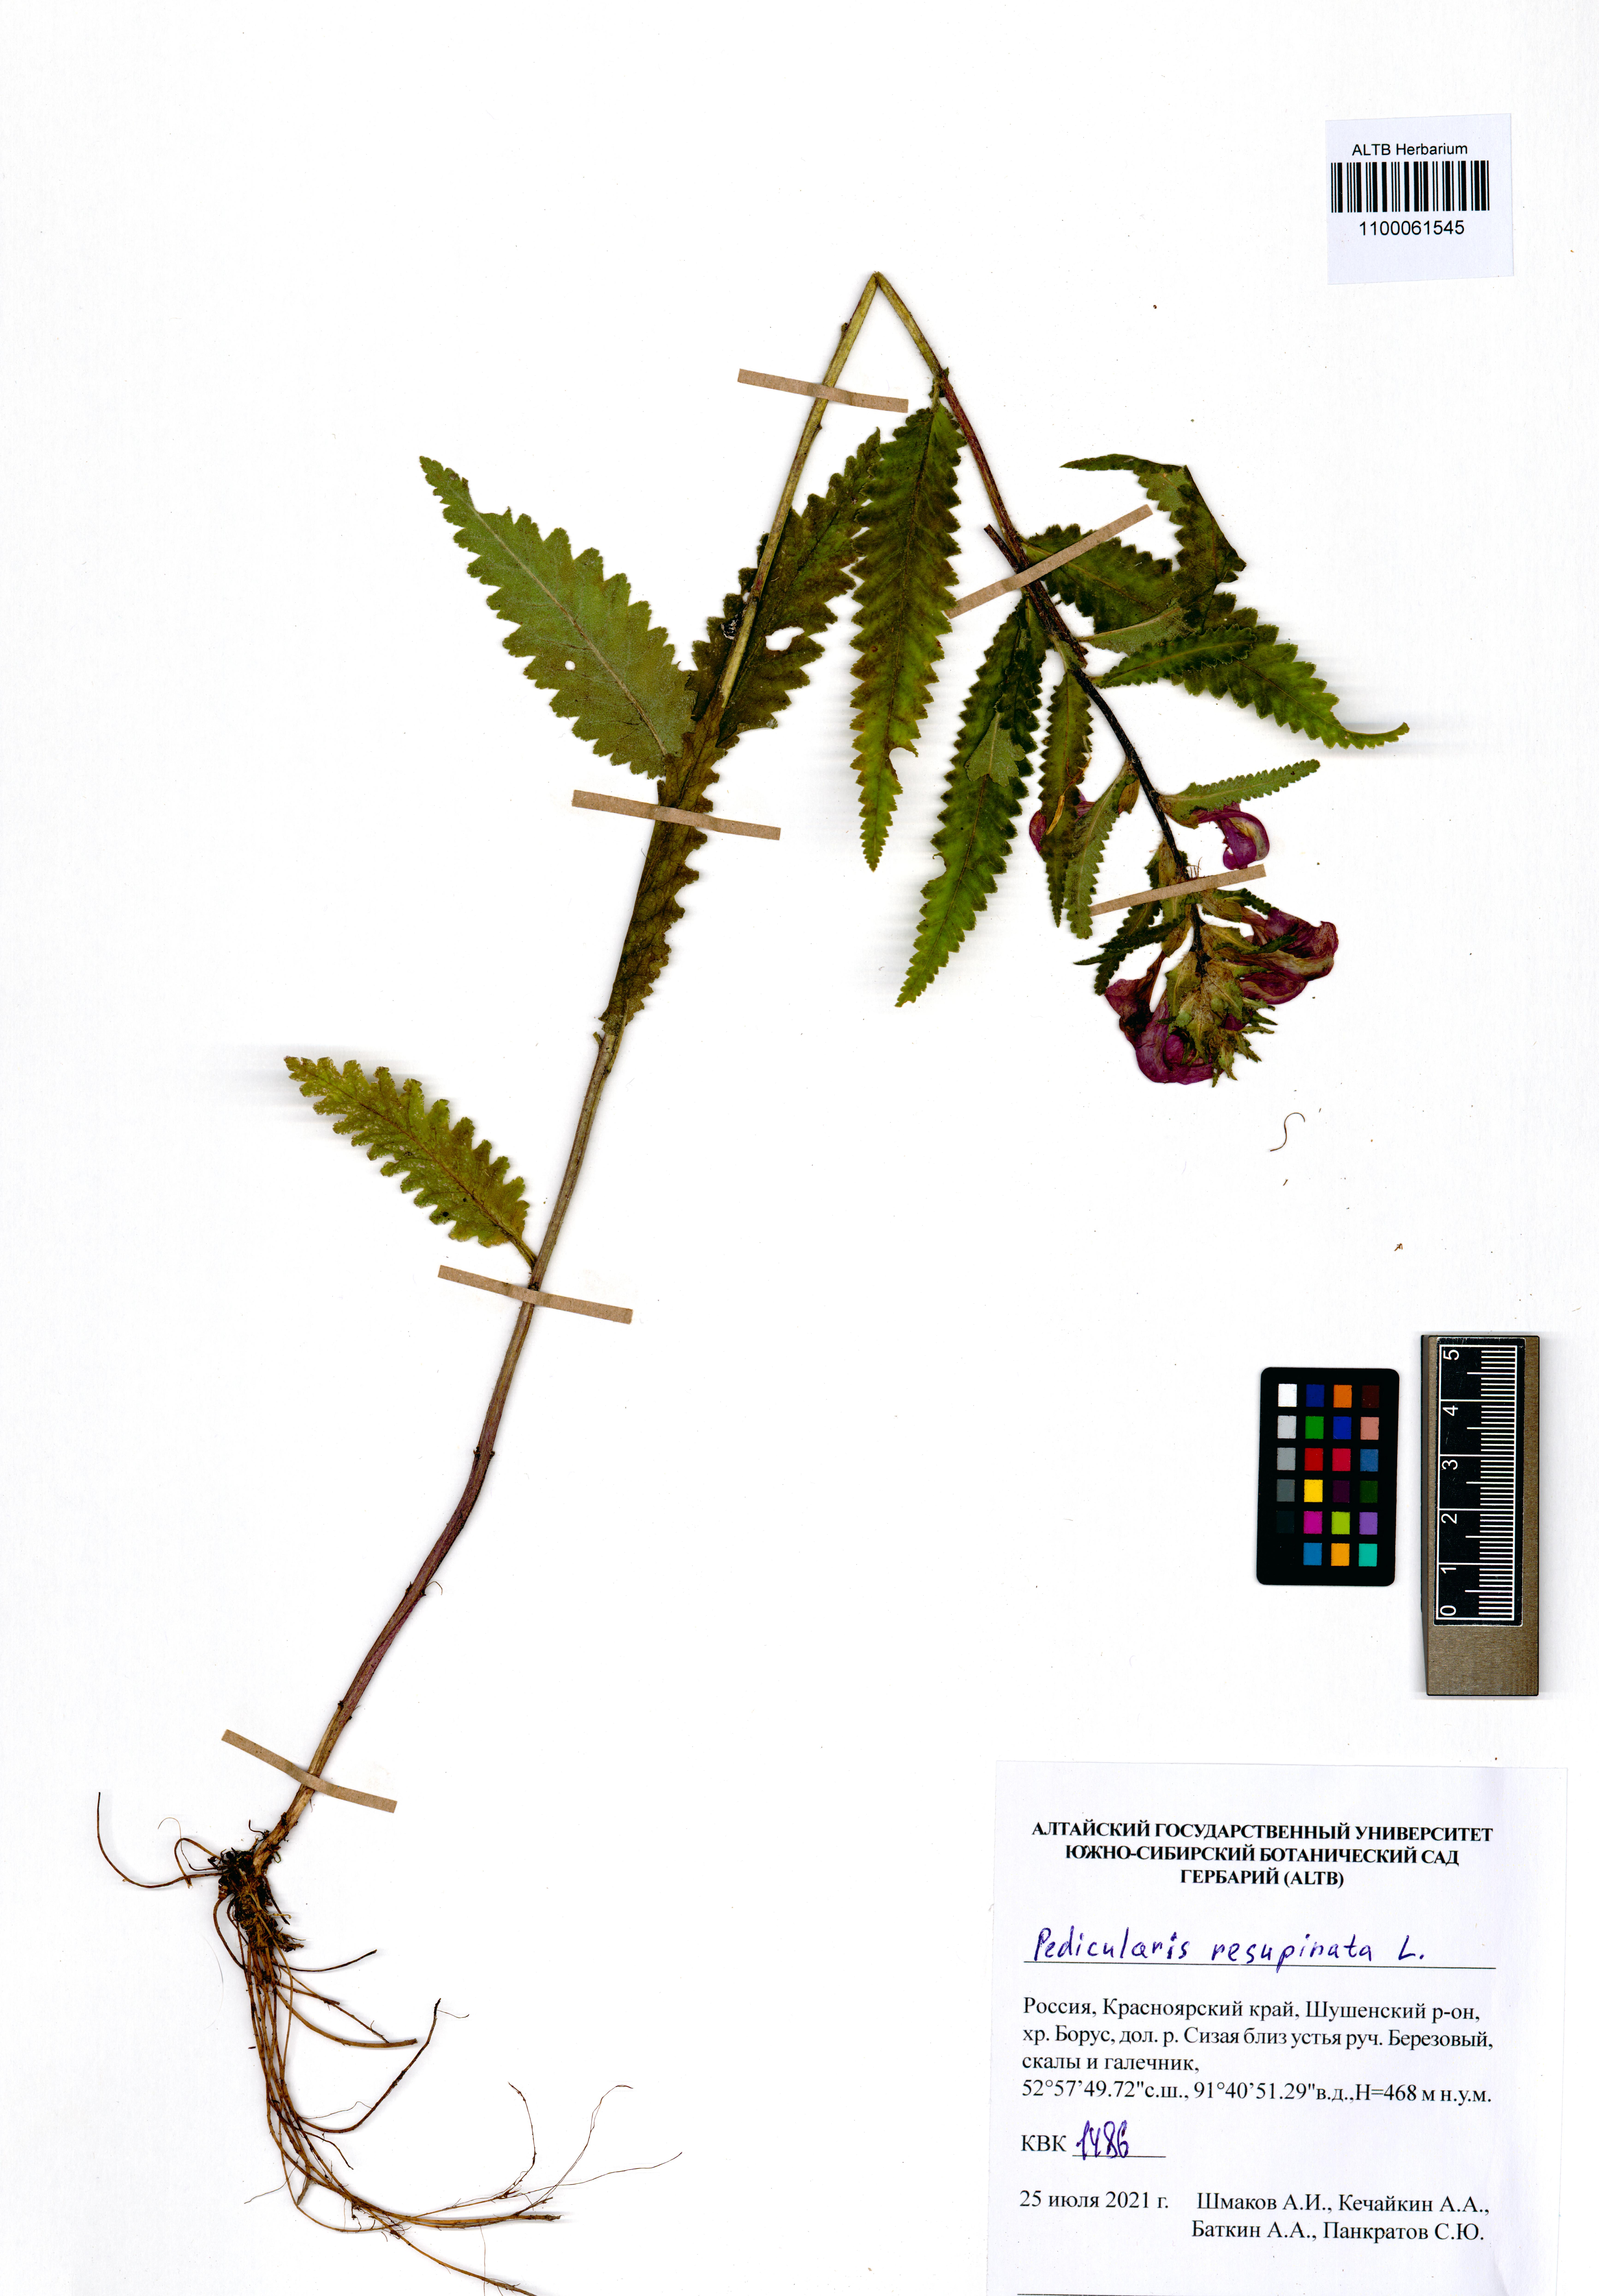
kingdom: Plantae
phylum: Tracheophyta
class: Magnoliopsida
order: Lamiales
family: Orobanchaceae
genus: Pedicularis
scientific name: Pedicularis resupinata
